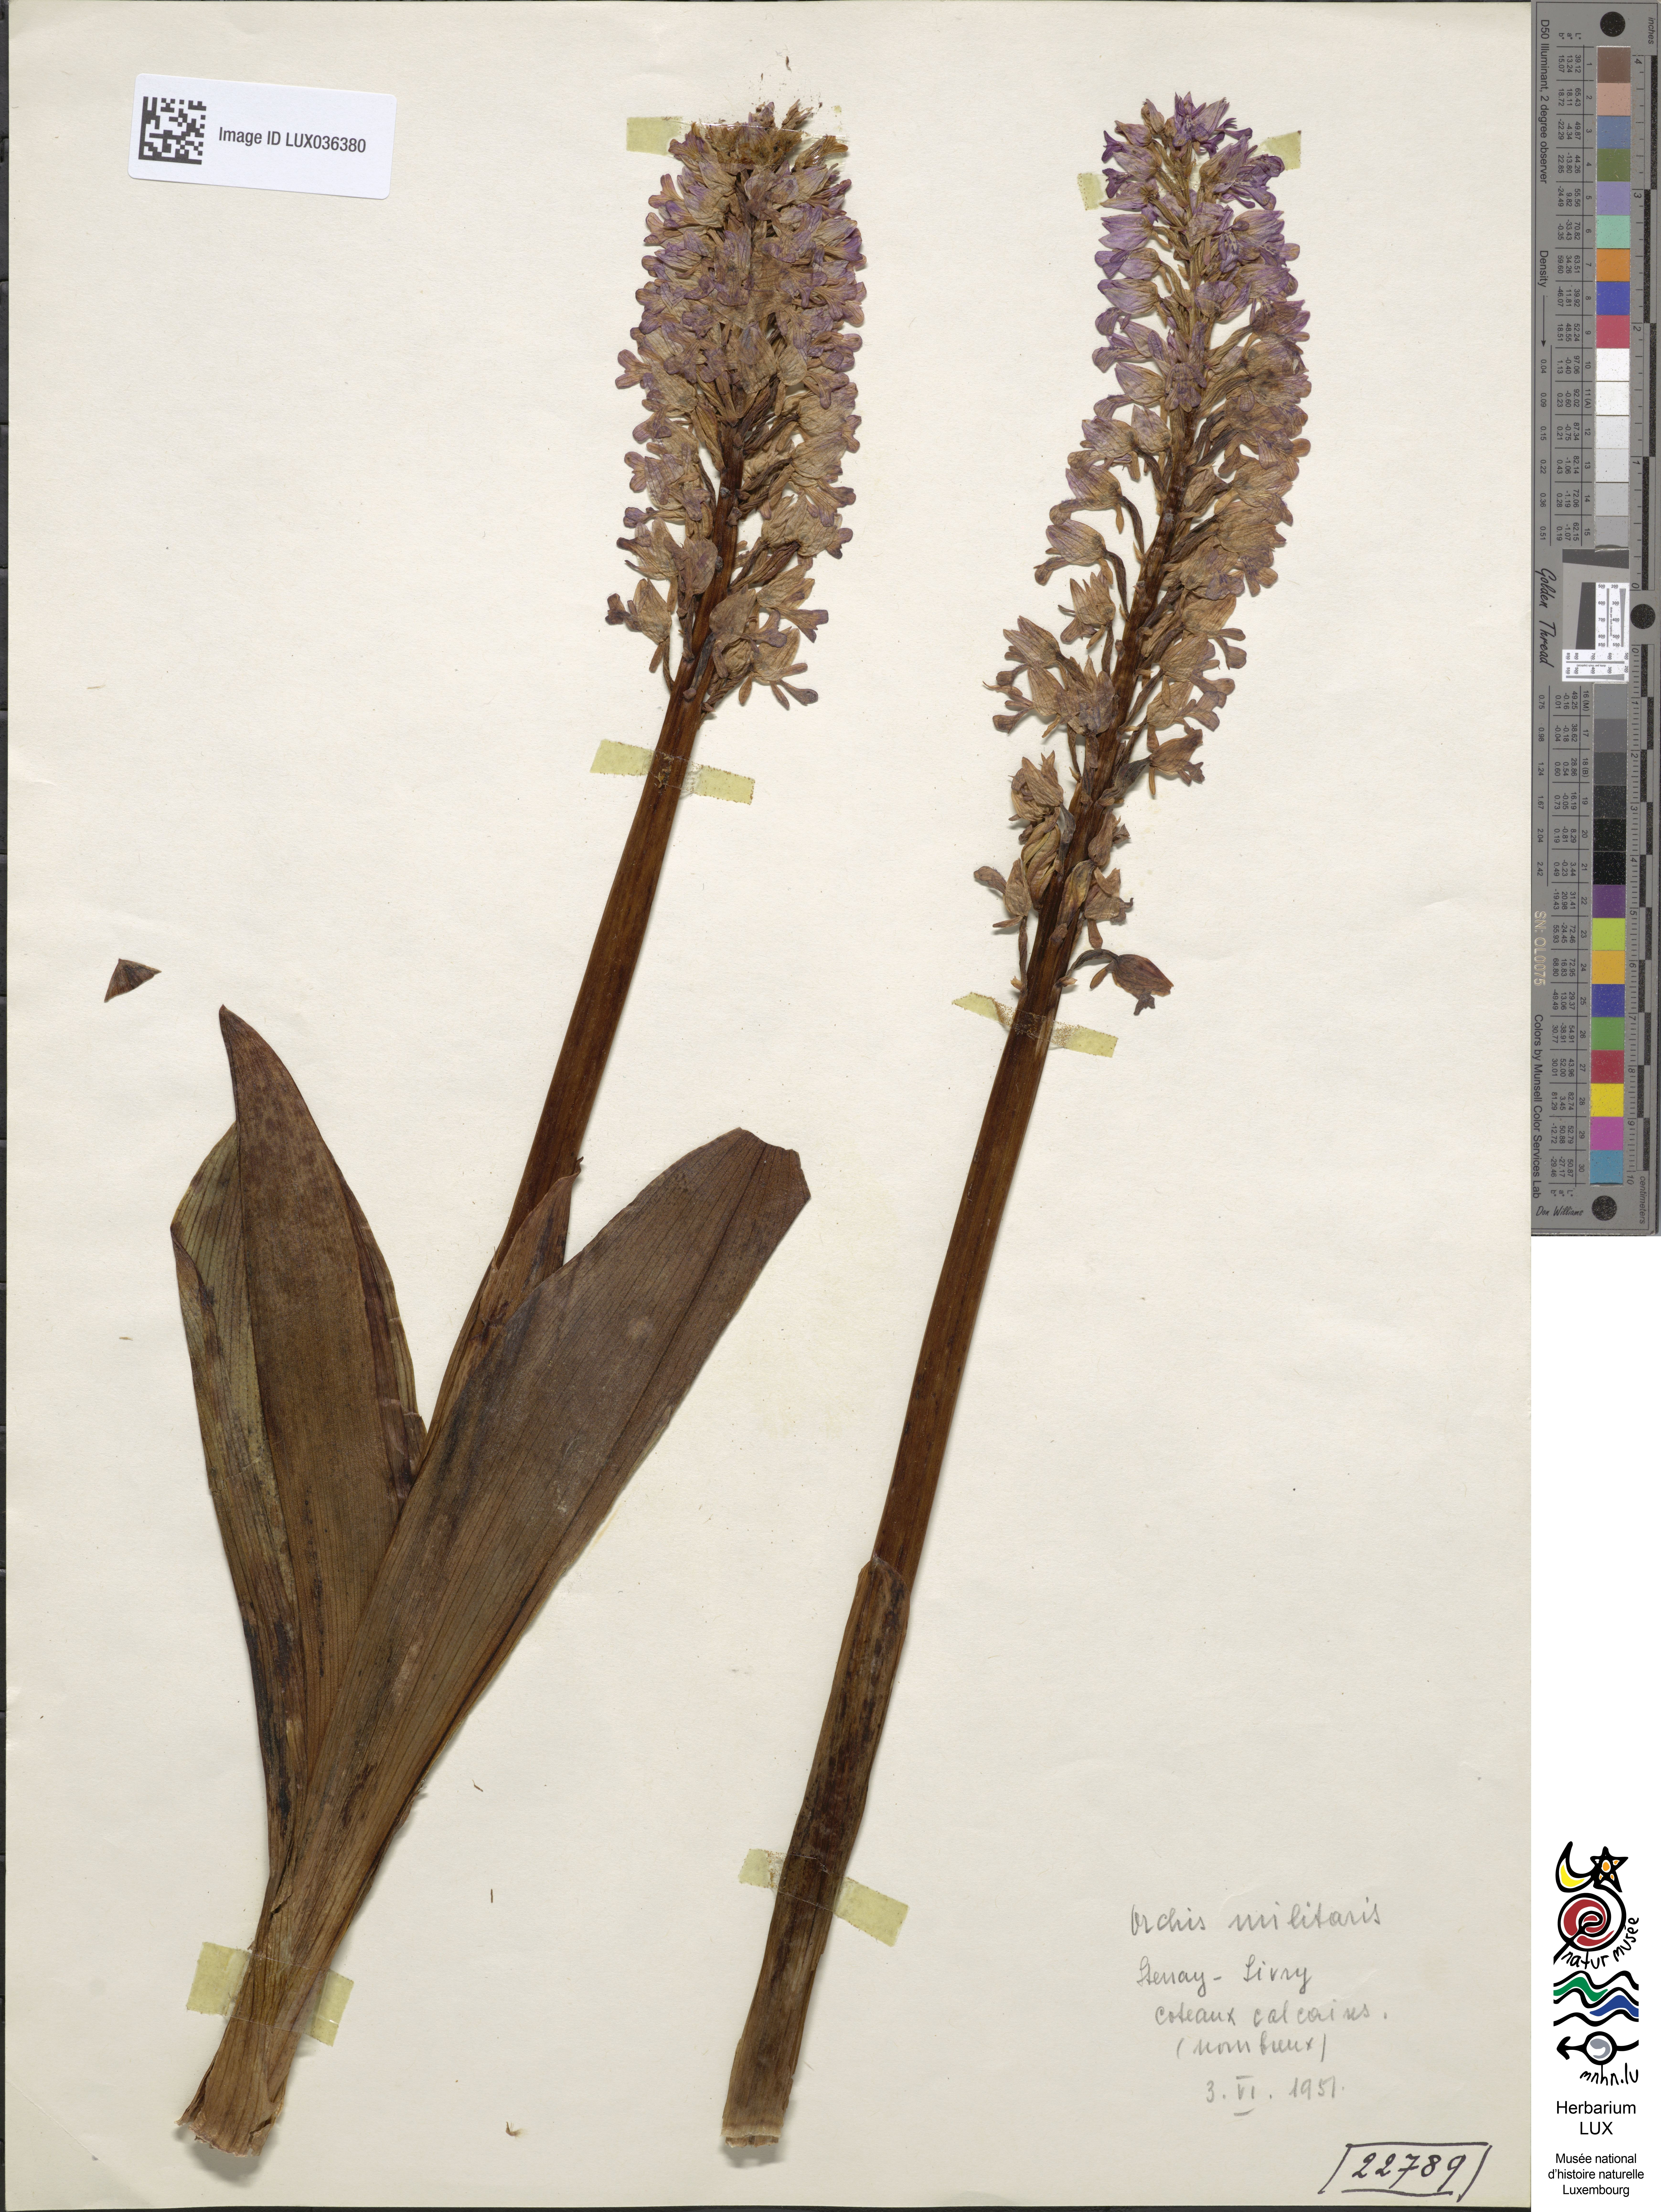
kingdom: Plantae
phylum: Tracheophyta
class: Liliopsida
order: Asparagales
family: Orchidaceae
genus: Orchis
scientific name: Orchis militaris
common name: Military orchid
